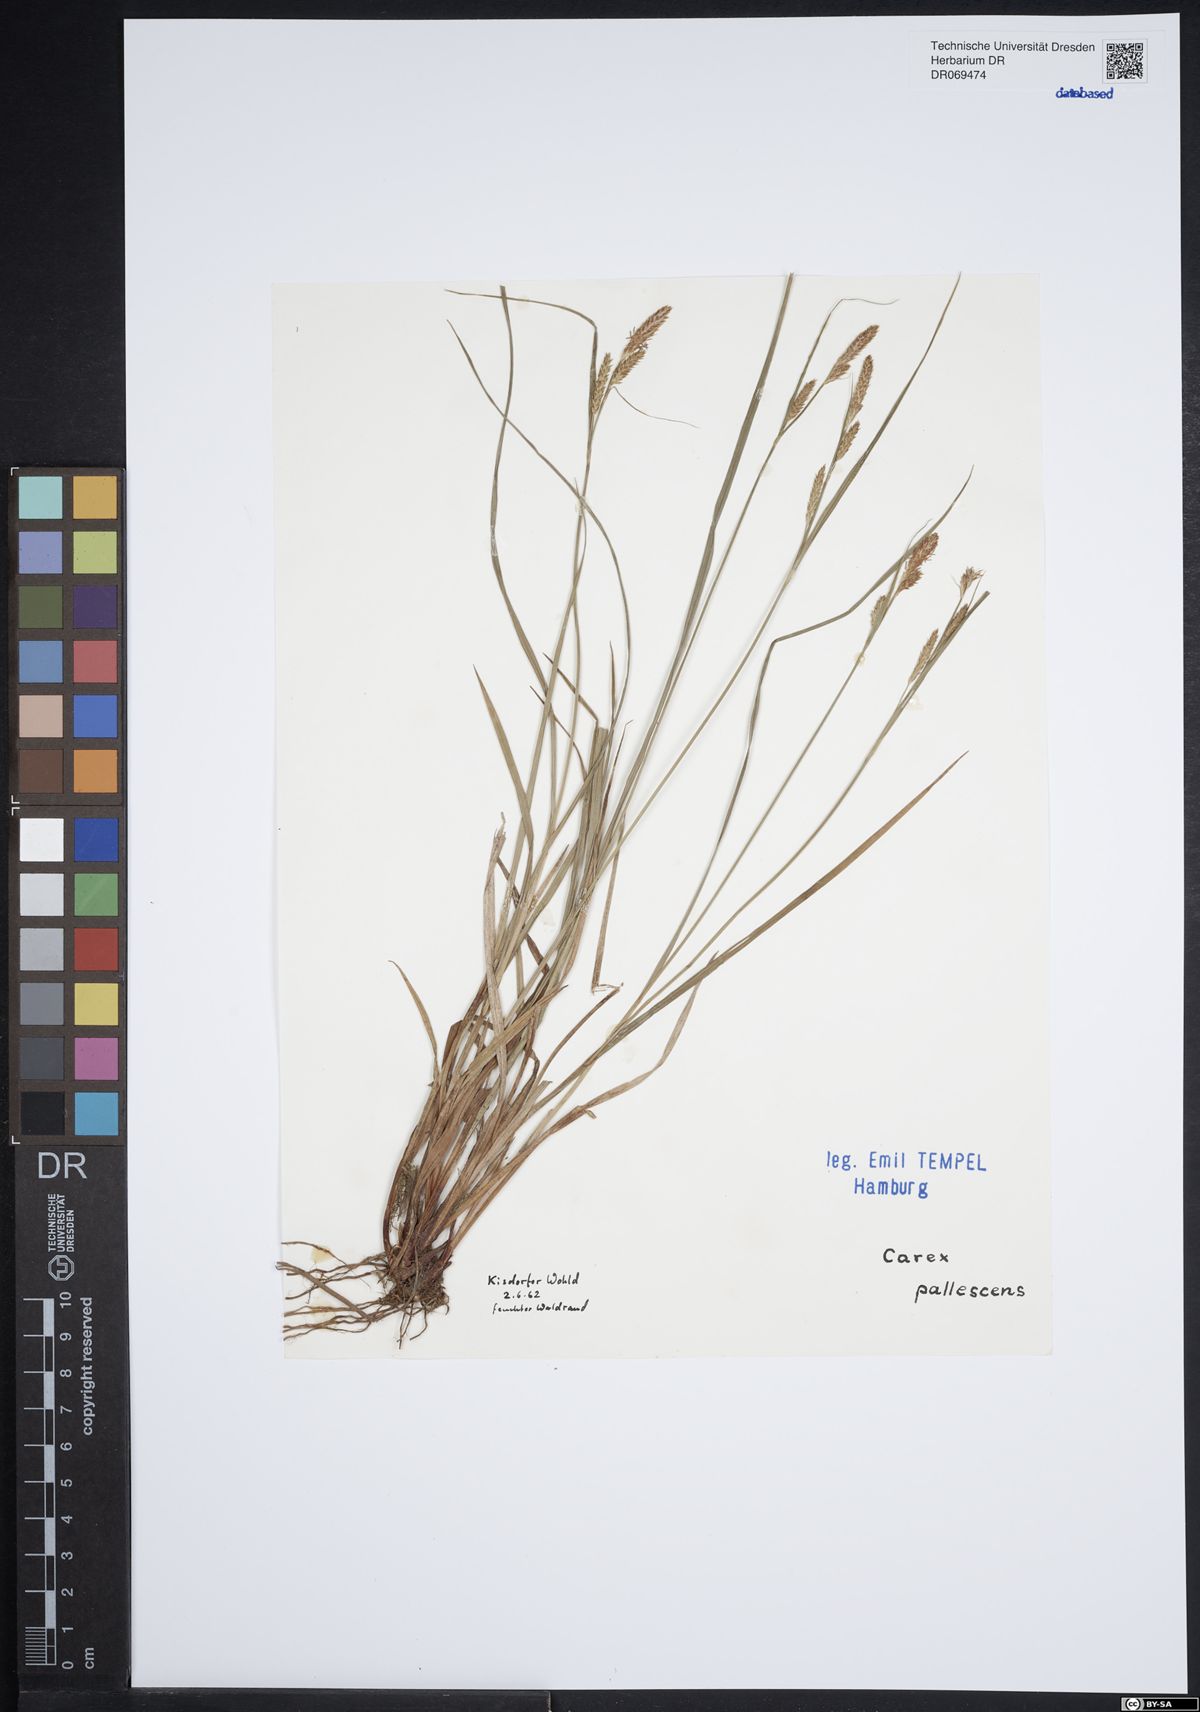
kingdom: Plantae
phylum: Tracheophyta
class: Liliopsida
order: Poales
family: Cyperaceae
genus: Carex
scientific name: Carex pallescens
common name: Pale sedge
